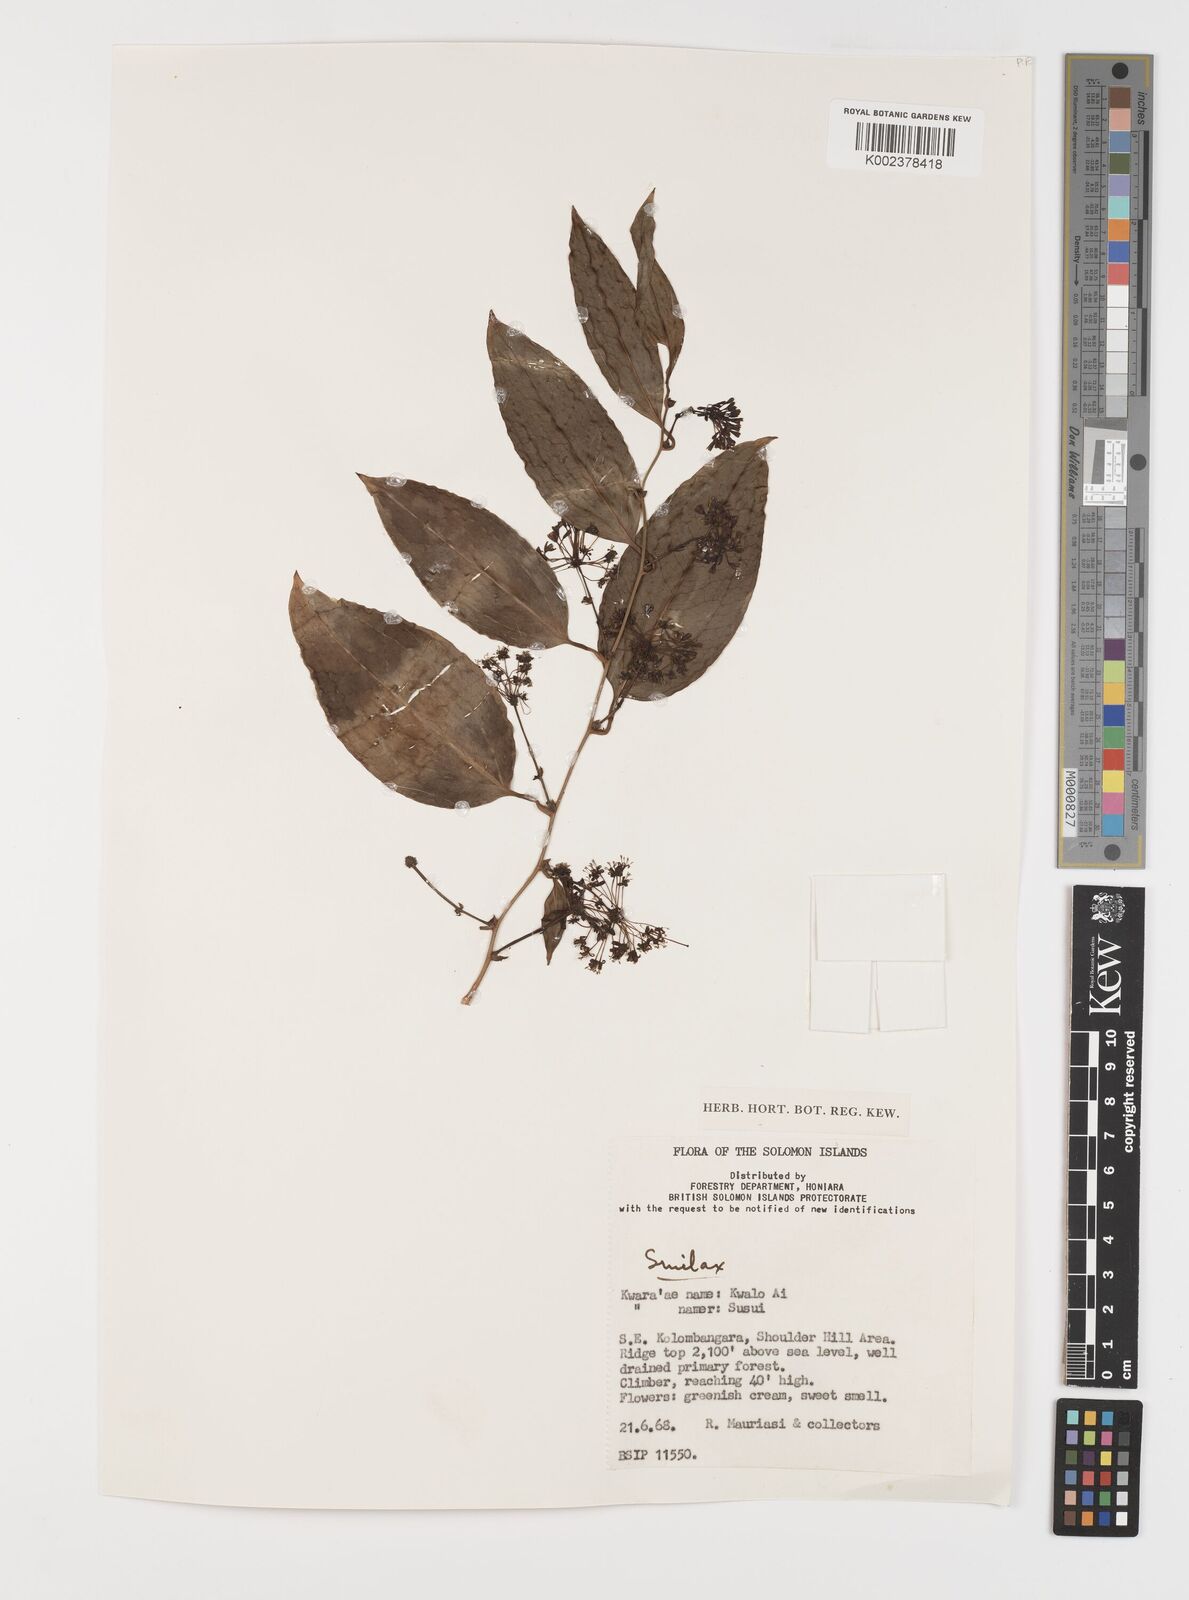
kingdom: Plantae
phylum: Tracheophyta
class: Liliopsida
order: Liliales
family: Smilacaceae
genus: Smilax
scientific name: Smilax
